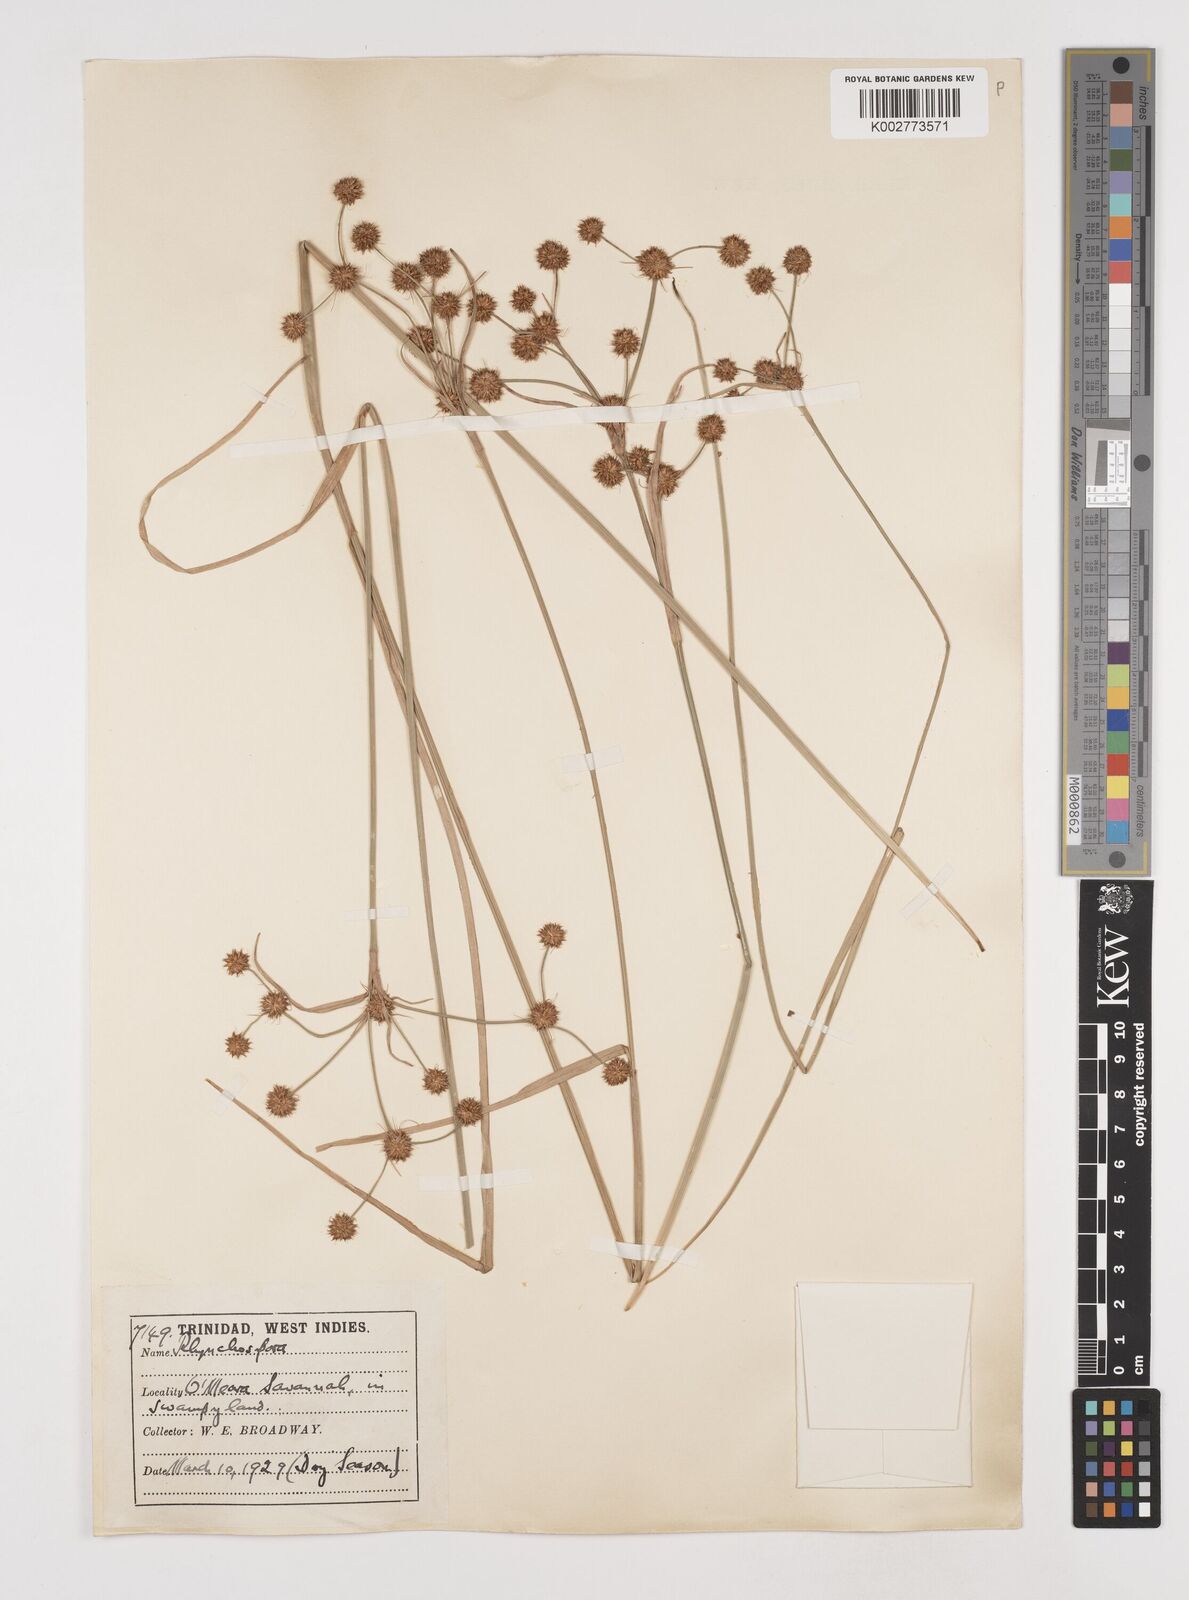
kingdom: Plantae
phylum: Tracheophyta
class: Liliopsida
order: Poales
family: Cyperaceae
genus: Rhynchospora
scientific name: Rhynchospora holoschoenoides
